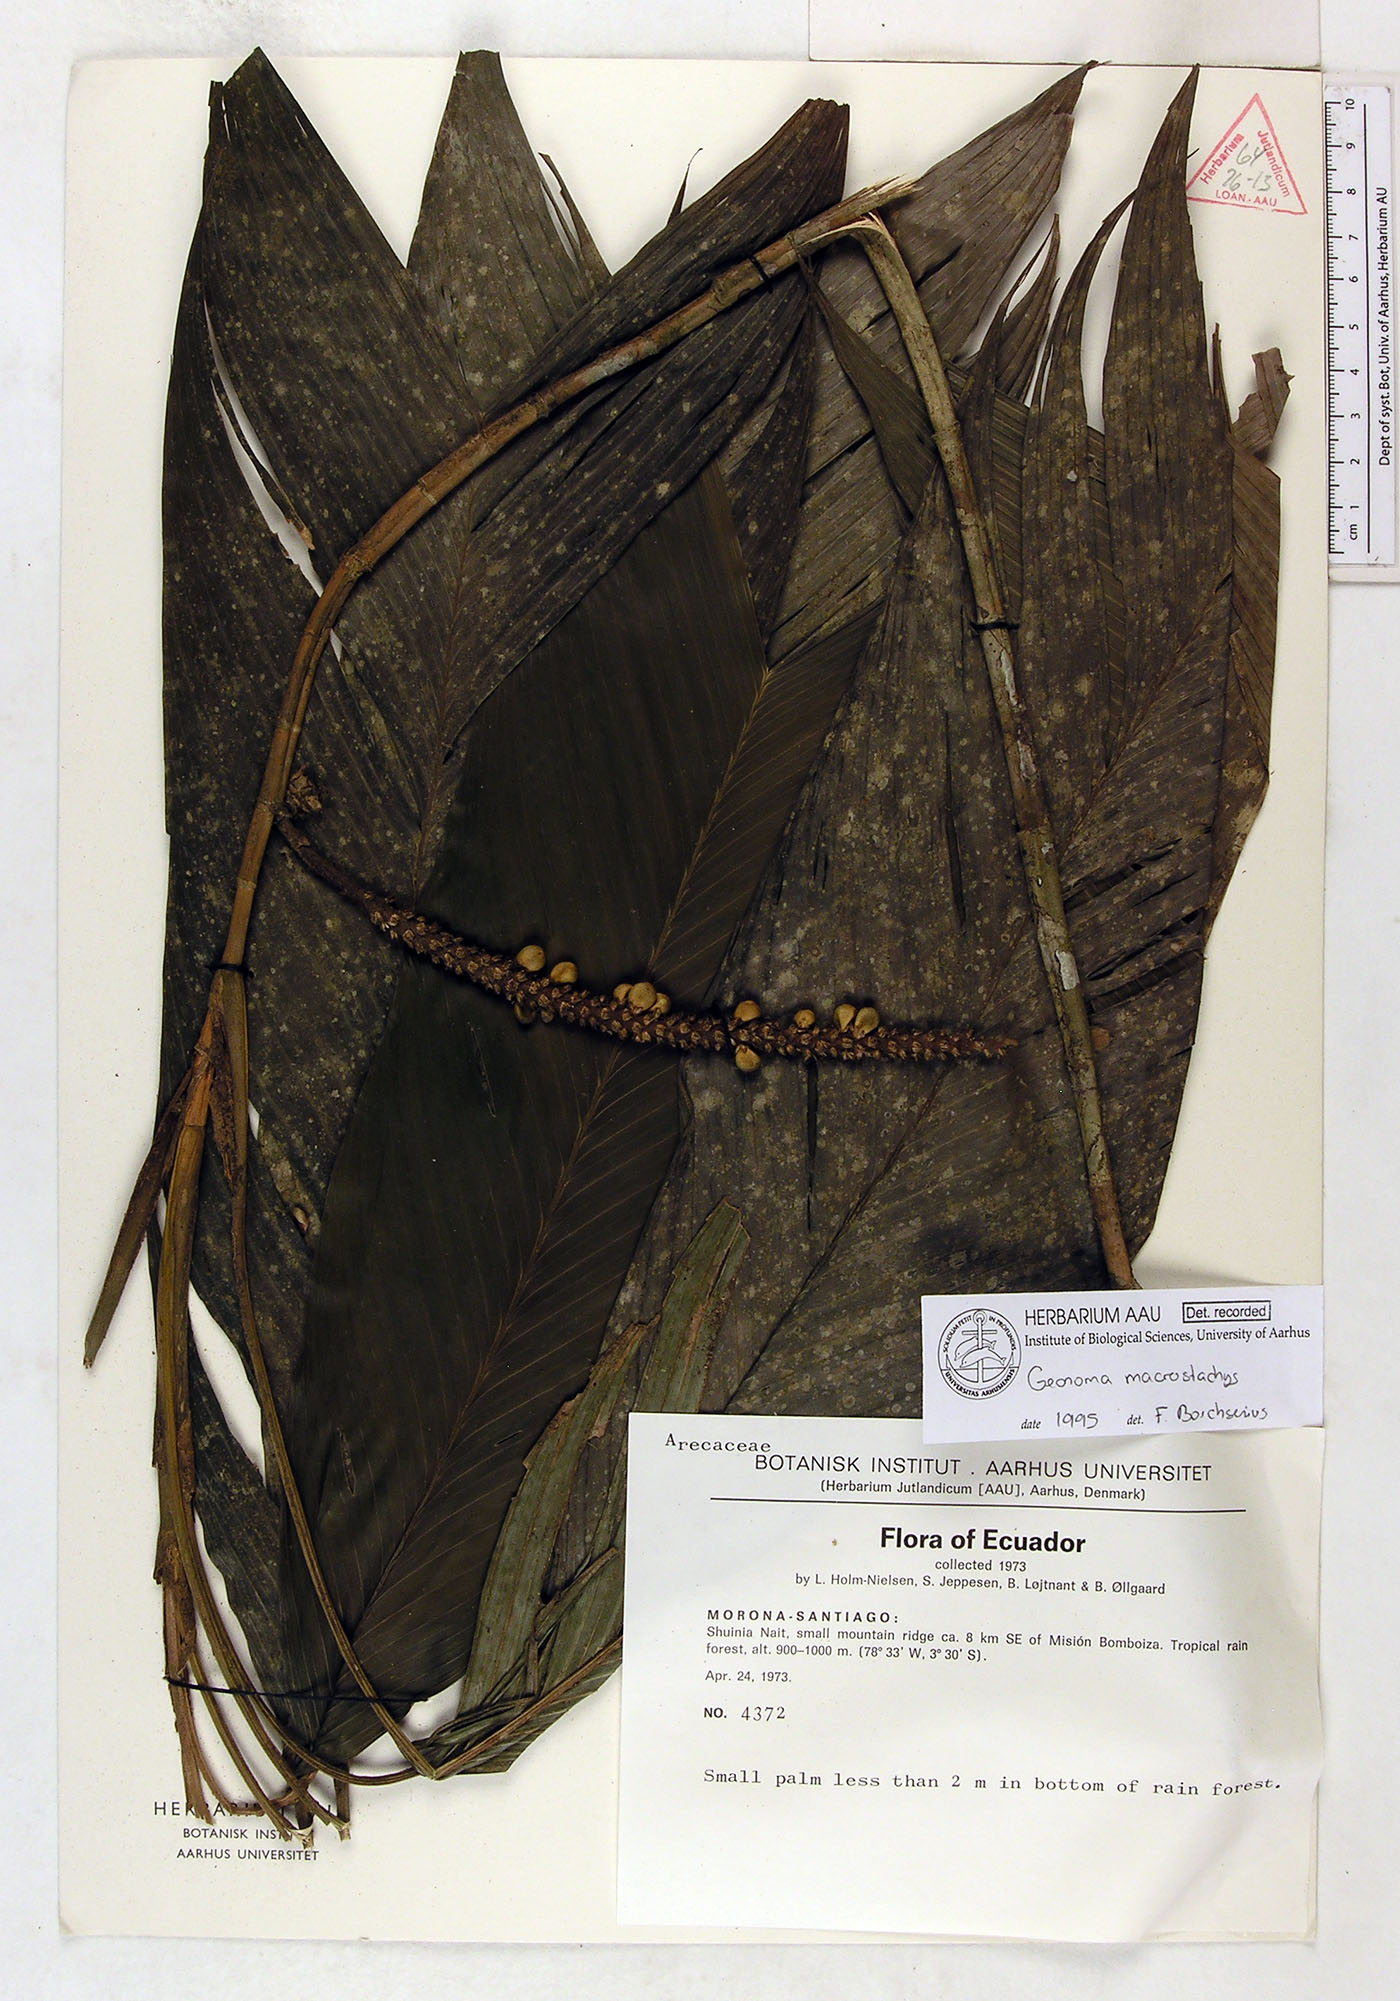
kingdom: Plantae
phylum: Tracheophyta
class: Liliopsida
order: Arecales
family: Arecaceae
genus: Geonoma
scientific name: Geonoma macrostachys
